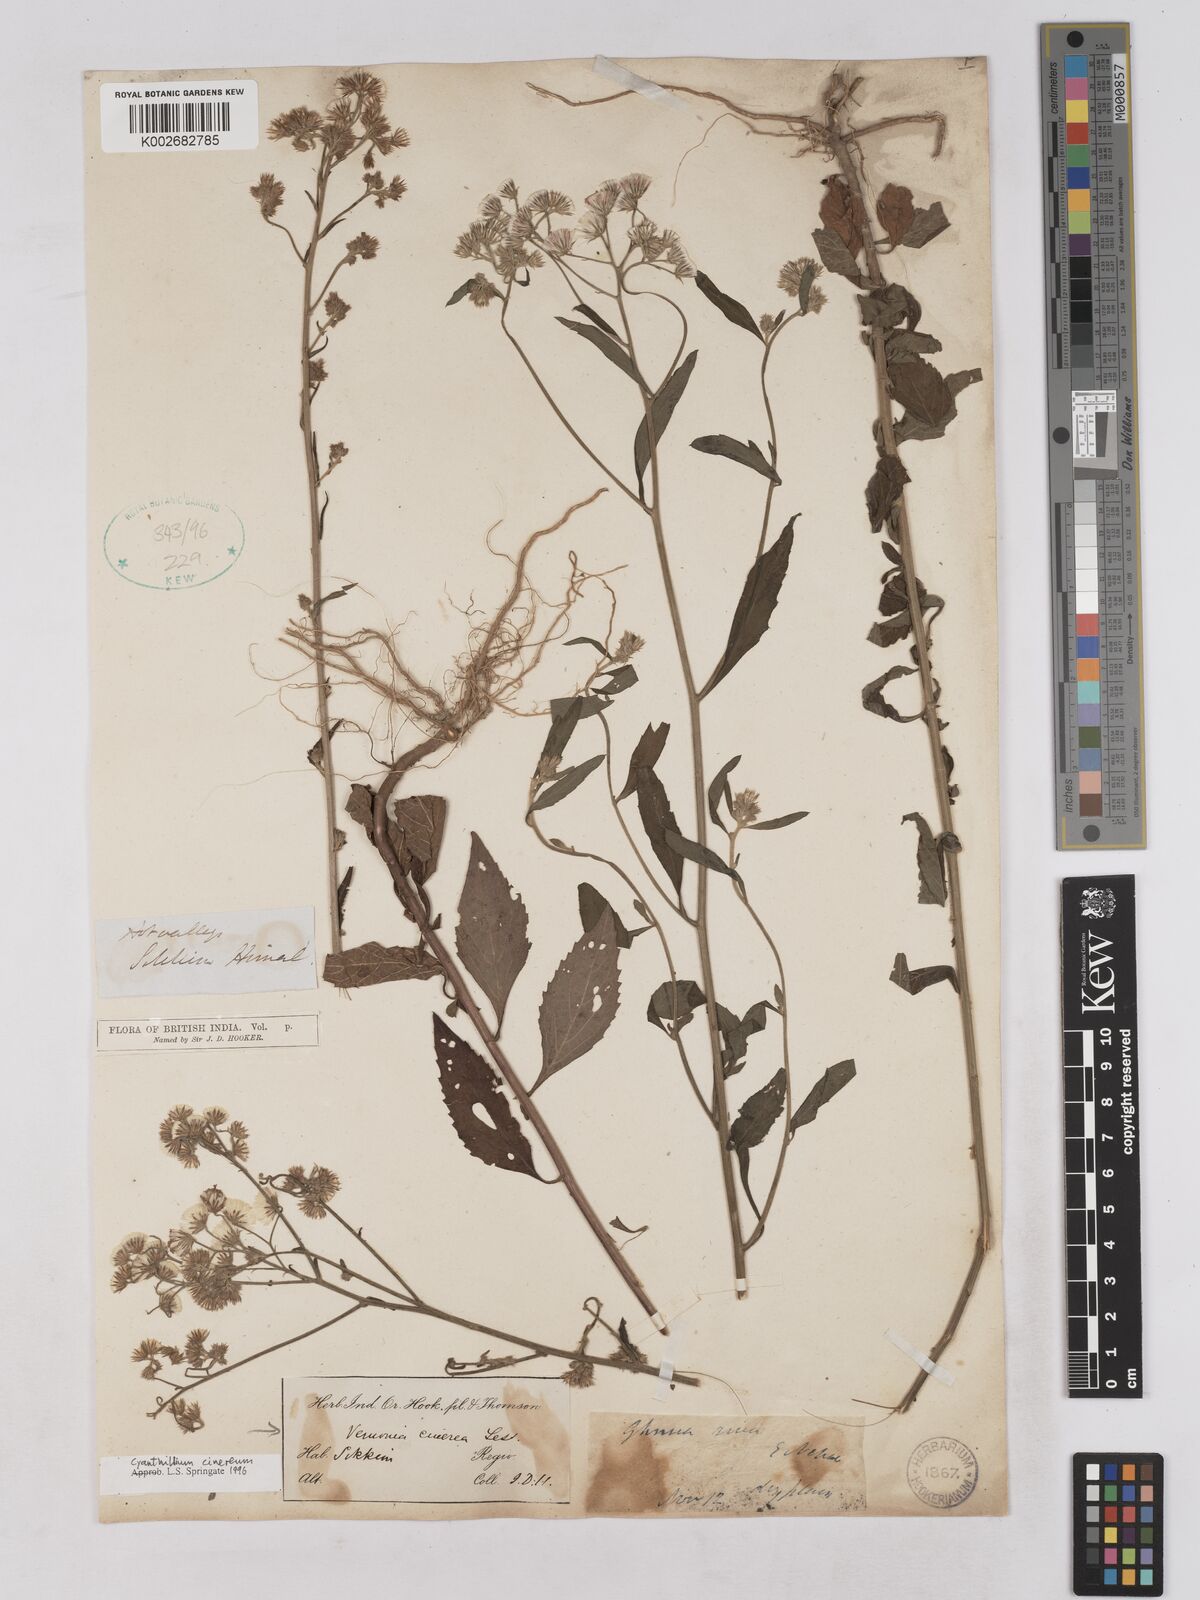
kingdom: Plantae
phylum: Tracheophyta
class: Magnoliopsida
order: Asterales
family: Asteraceae
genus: Cyanthillium
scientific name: Cyanthillium cinereum
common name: Little ironweed
